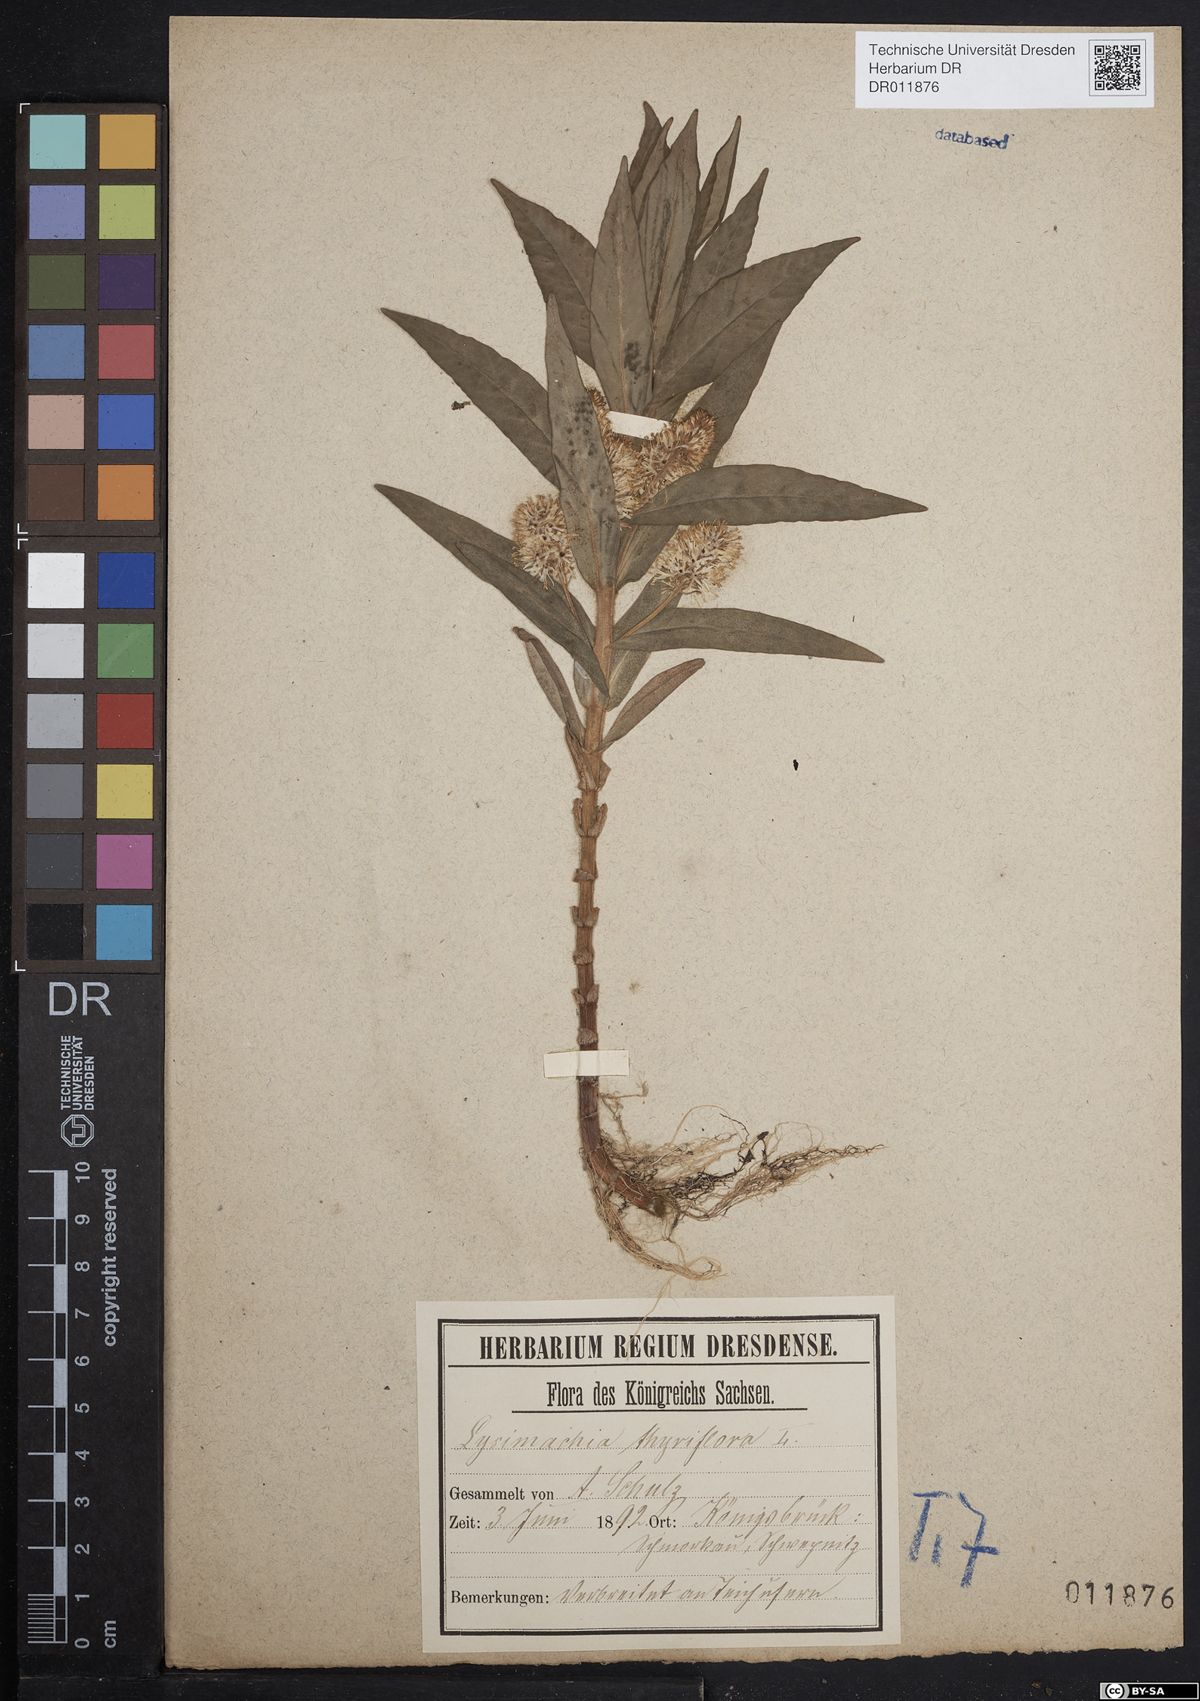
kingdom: Plantae
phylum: Tracheophyta
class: Magnoliopsida
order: Ericales
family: Primulaceae
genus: Lysimachia
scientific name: Lysimachia thyrsiflora
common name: Tufted loosestrife
